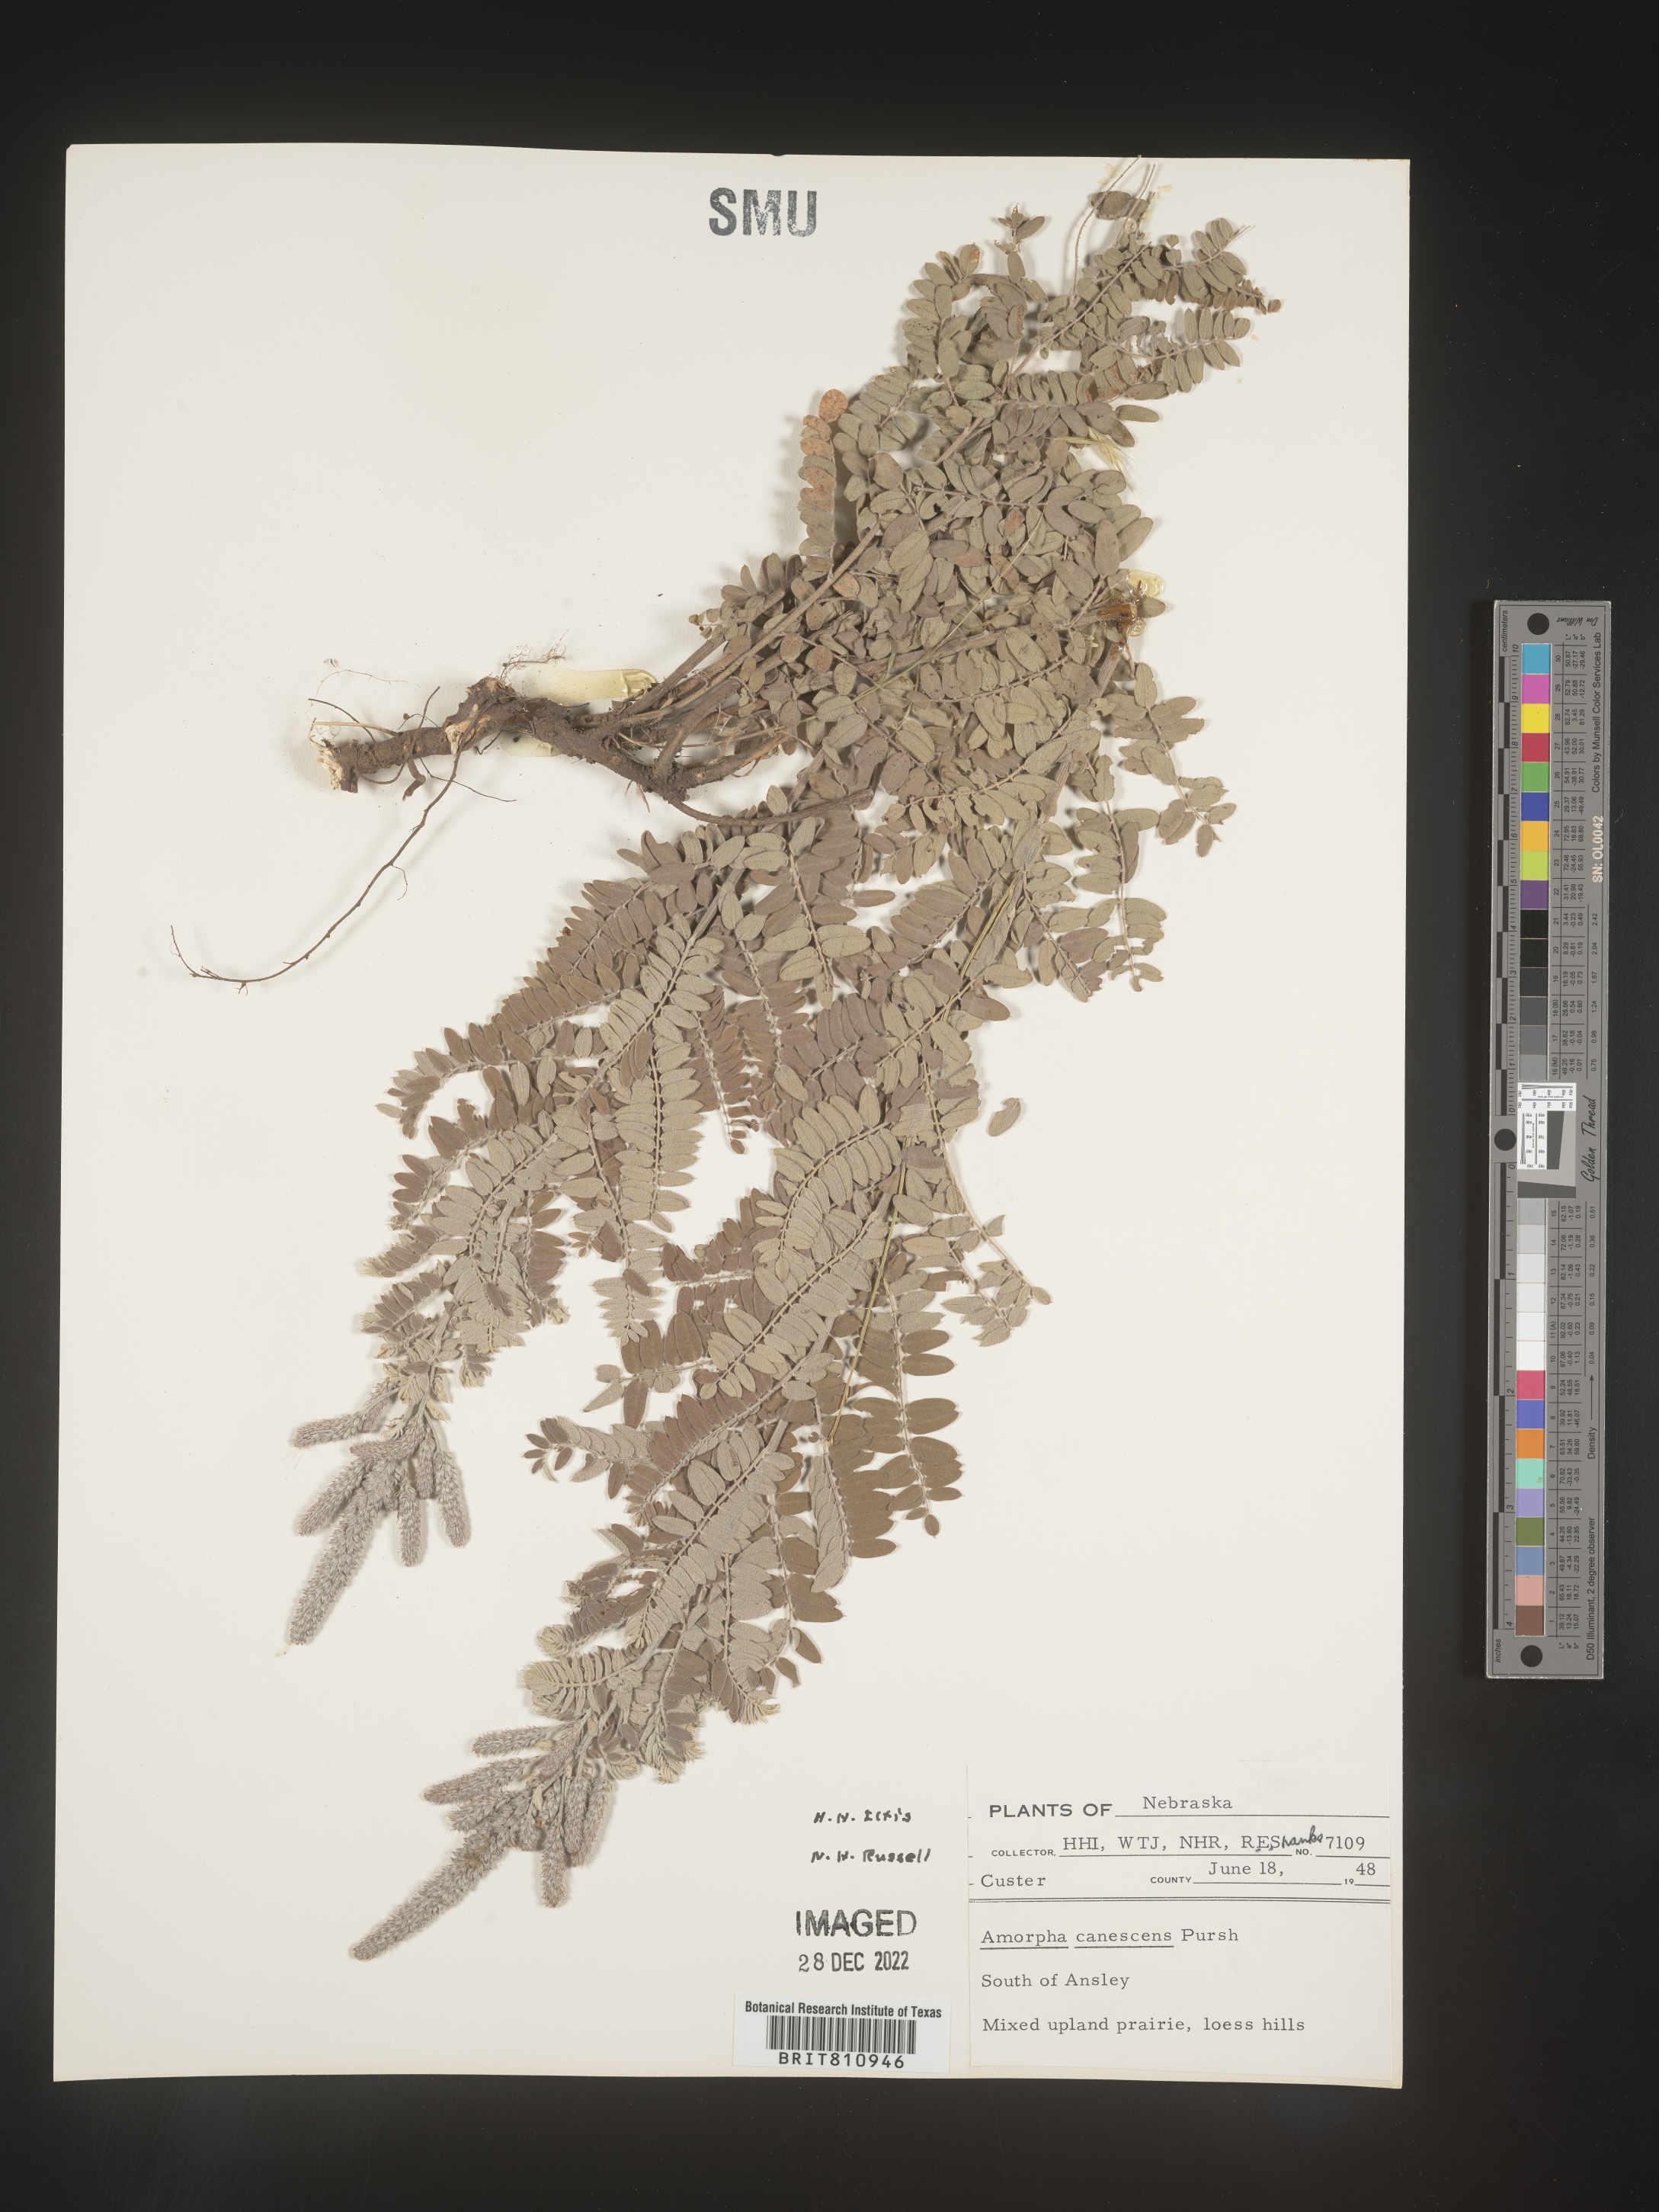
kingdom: Plantae
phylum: Tracheophyta
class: Magnoliopsida
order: Fabales
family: Fabaceae
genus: Amorpha
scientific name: Amorpha canescens
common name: Leadplant
